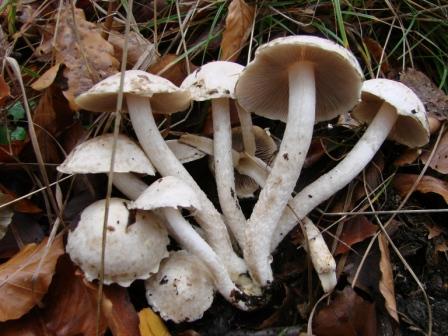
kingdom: Fungi
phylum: Basidiomycota
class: Agaricomycetes
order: Agaricales
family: Psathyrellaceae
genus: Psathyrella
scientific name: Psathyrella cotonea
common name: skællet mørkhat
